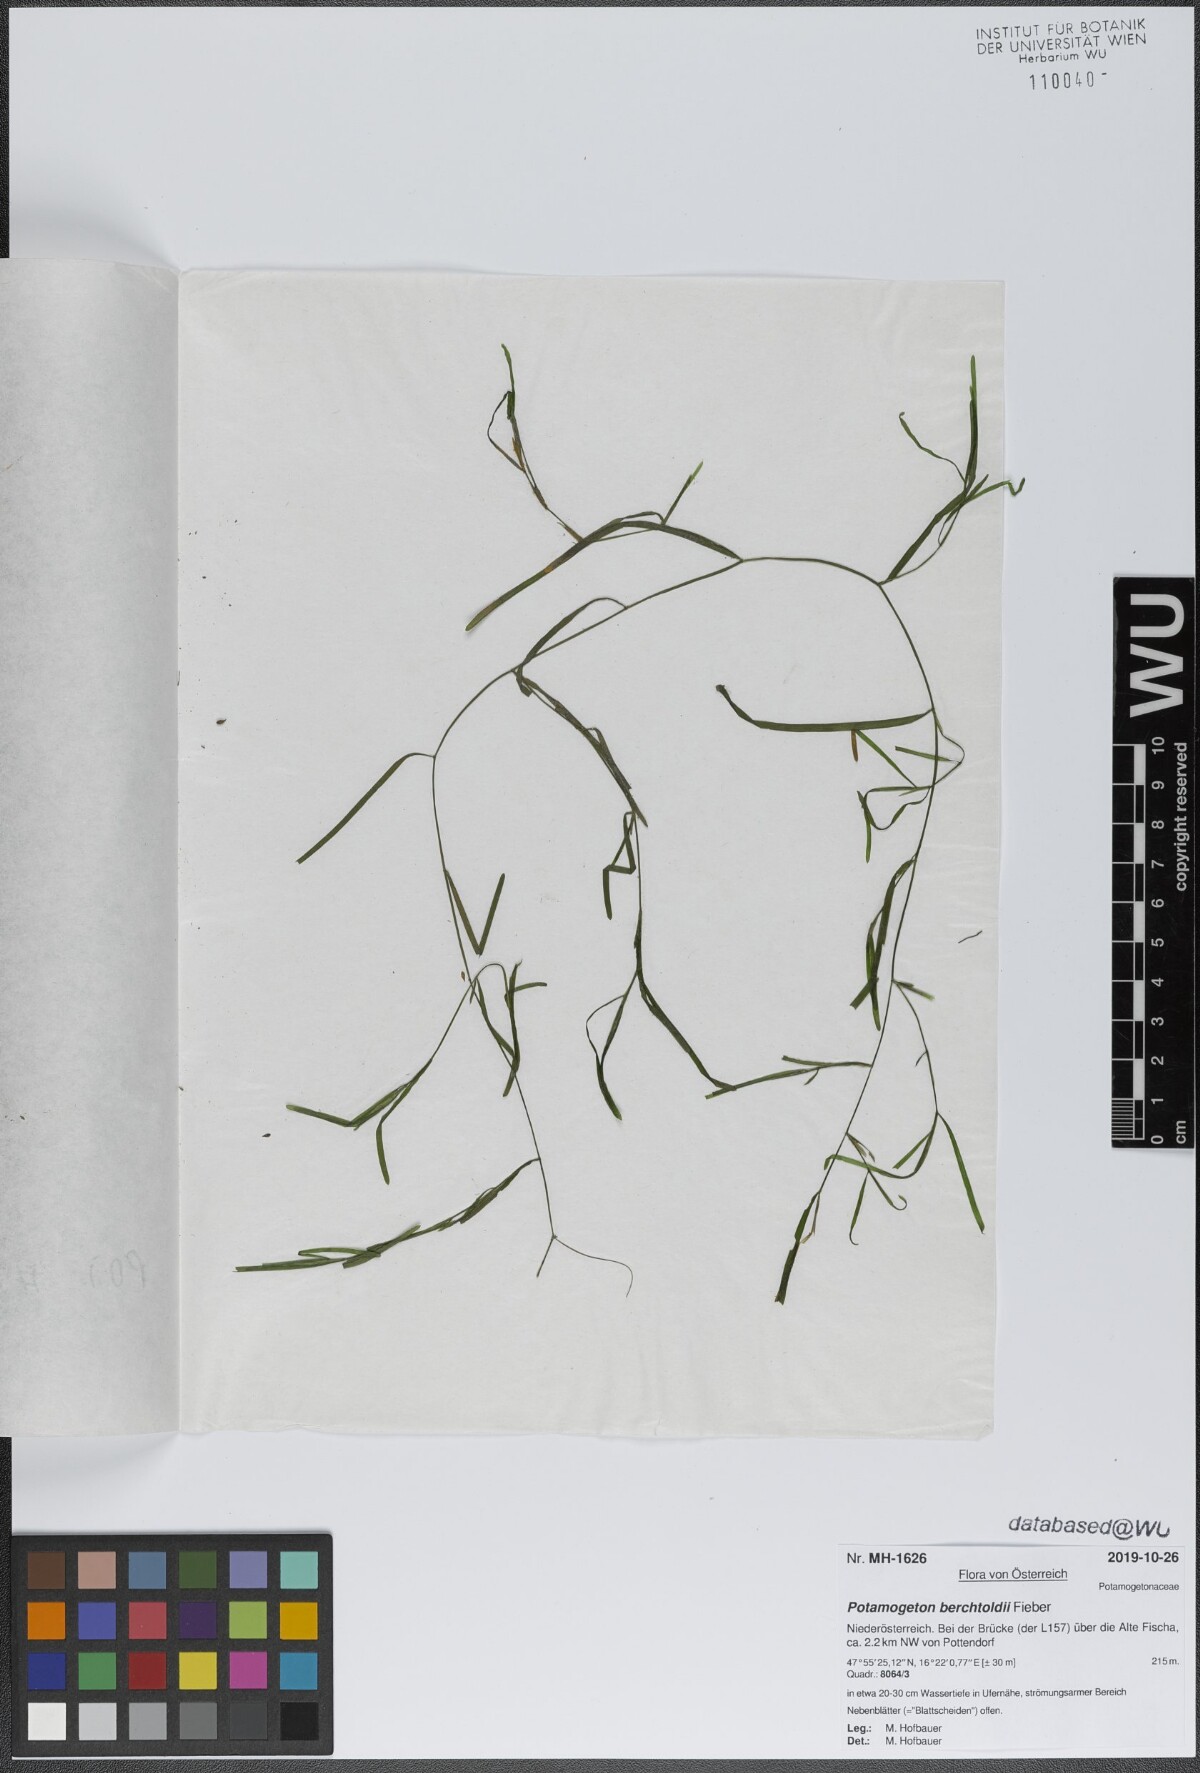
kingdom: Plantae
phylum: Tracheophyta
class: Liliopsida
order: Alismatales
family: Potamogetonaceae
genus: Potamogeton
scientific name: Potamogeton berchtoldii
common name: Small pondweed
